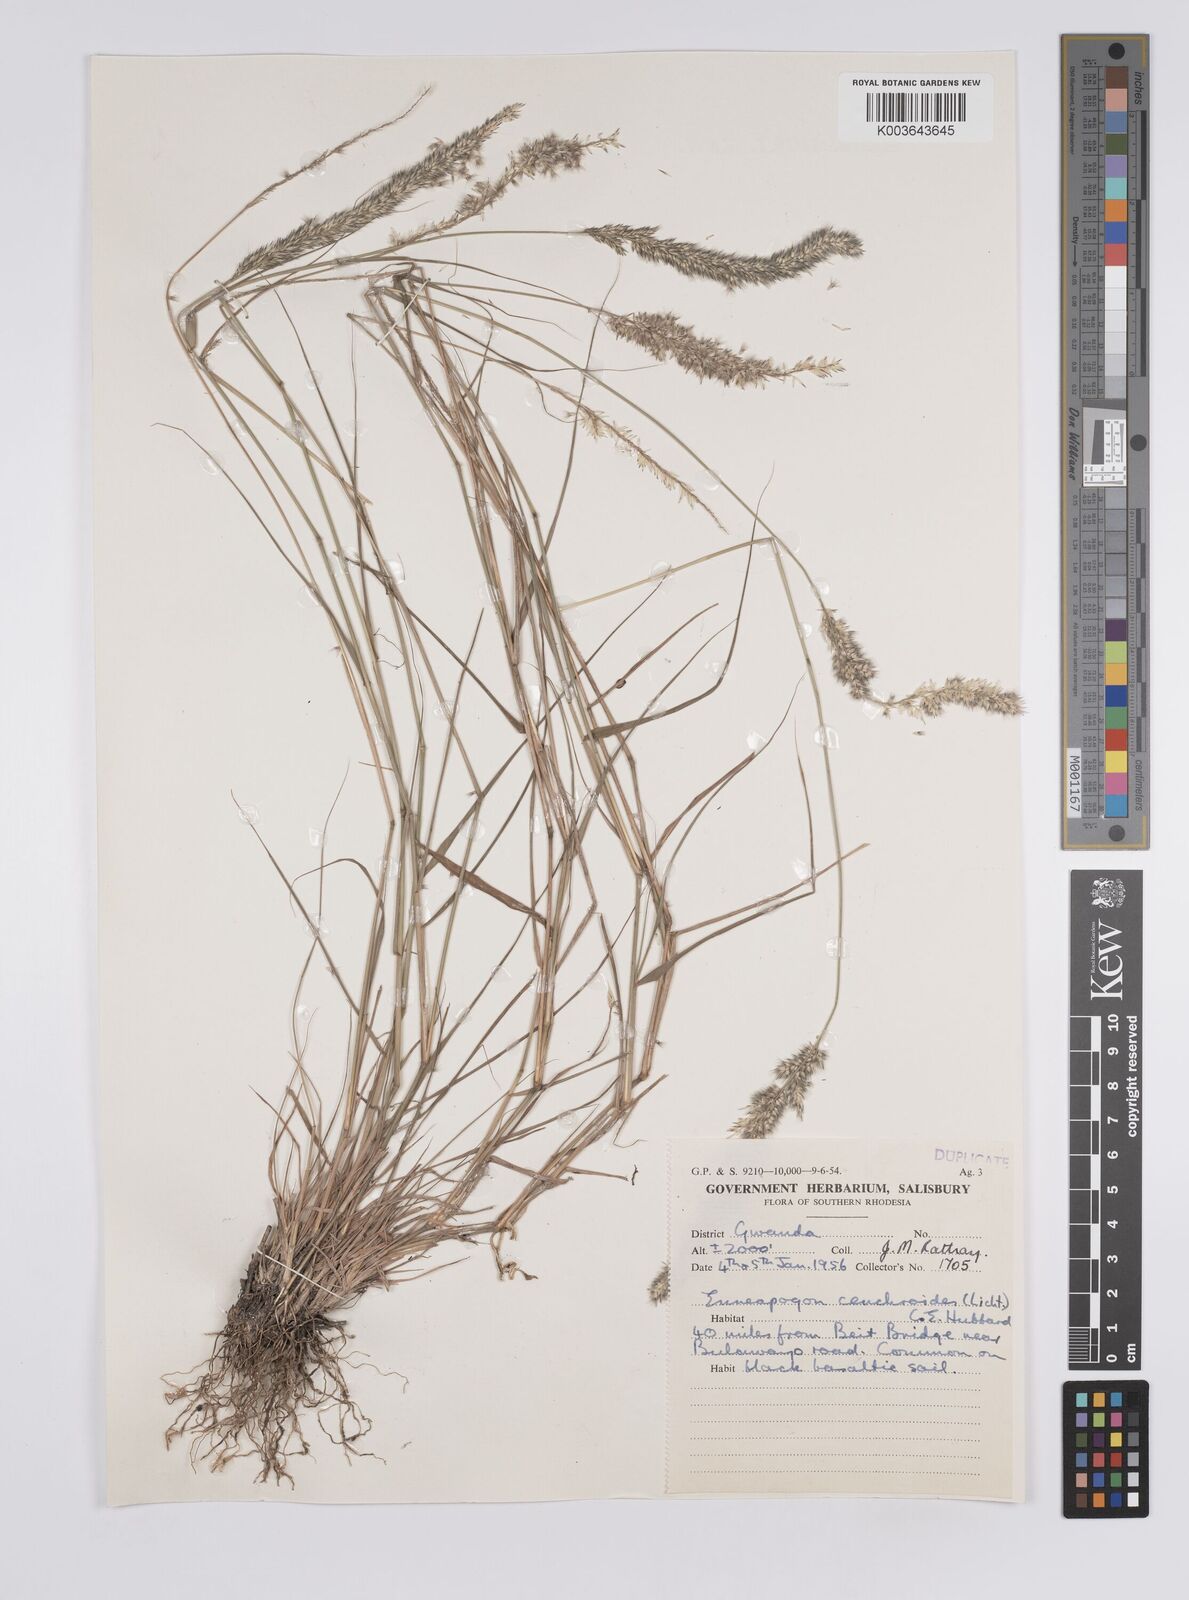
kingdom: Plantae
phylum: Tracheophyta
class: Liliopsida
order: Poales
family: Poaceae
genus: Enneapogon
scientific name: Enneapogon cenchroides
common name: Soft feather pappusgrass
